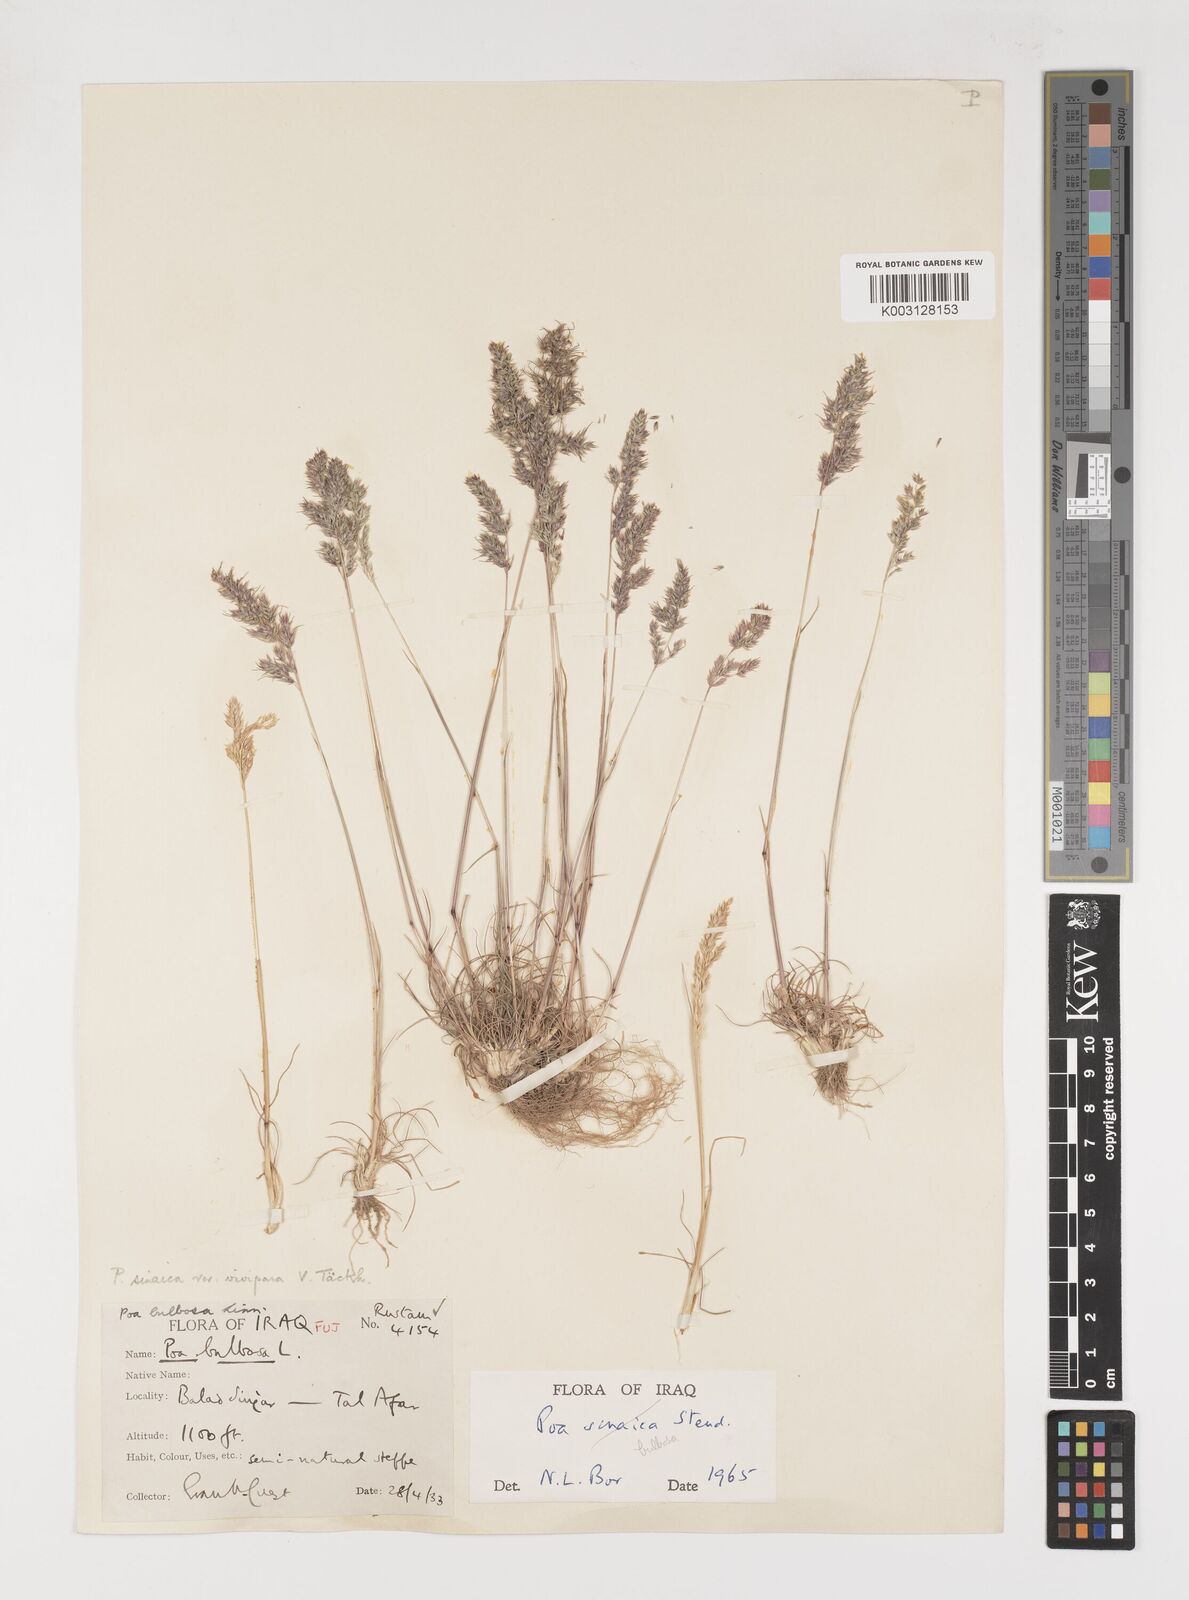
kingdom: Plantae
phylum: Tracheophyta
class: Liliopsida
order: Poales
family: Poaceae
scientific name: Poaceae
